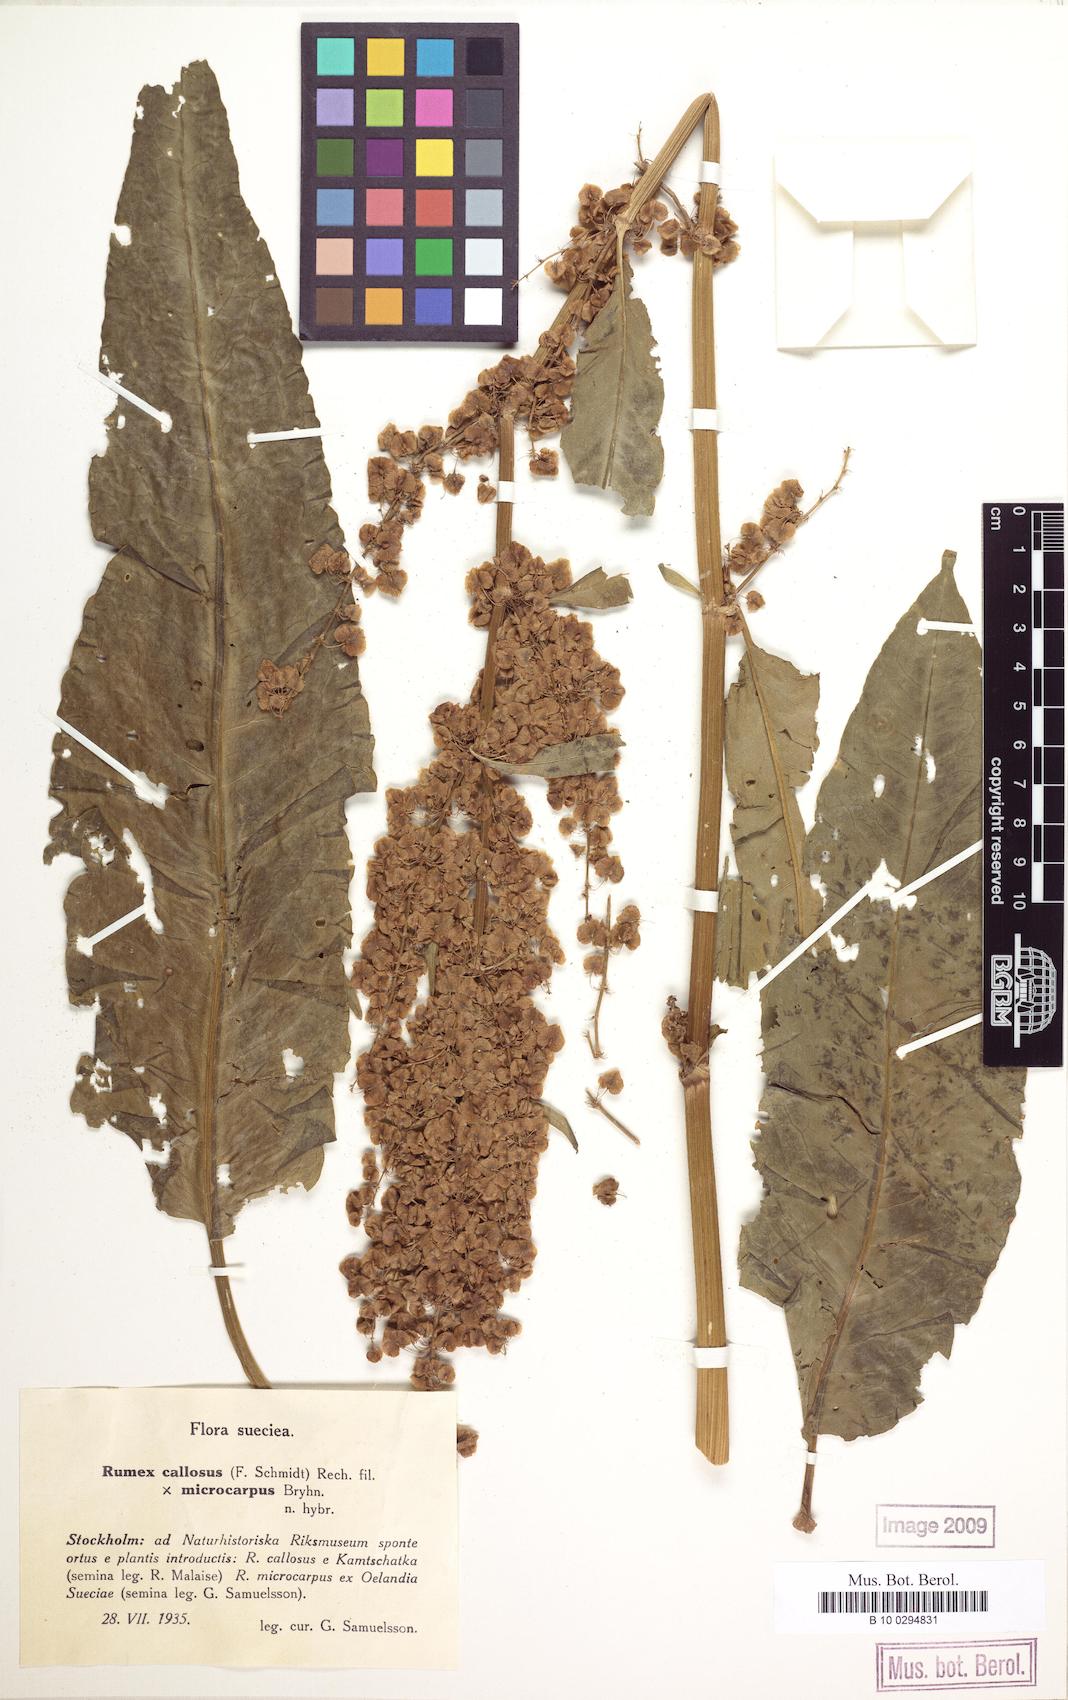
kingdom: Plantae
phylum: Tracheophyta
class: Magnoliopsida
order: Caryophyllales
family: Polygonaceae
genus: Rumex
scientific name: Rumex patientia
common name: Patience dock
